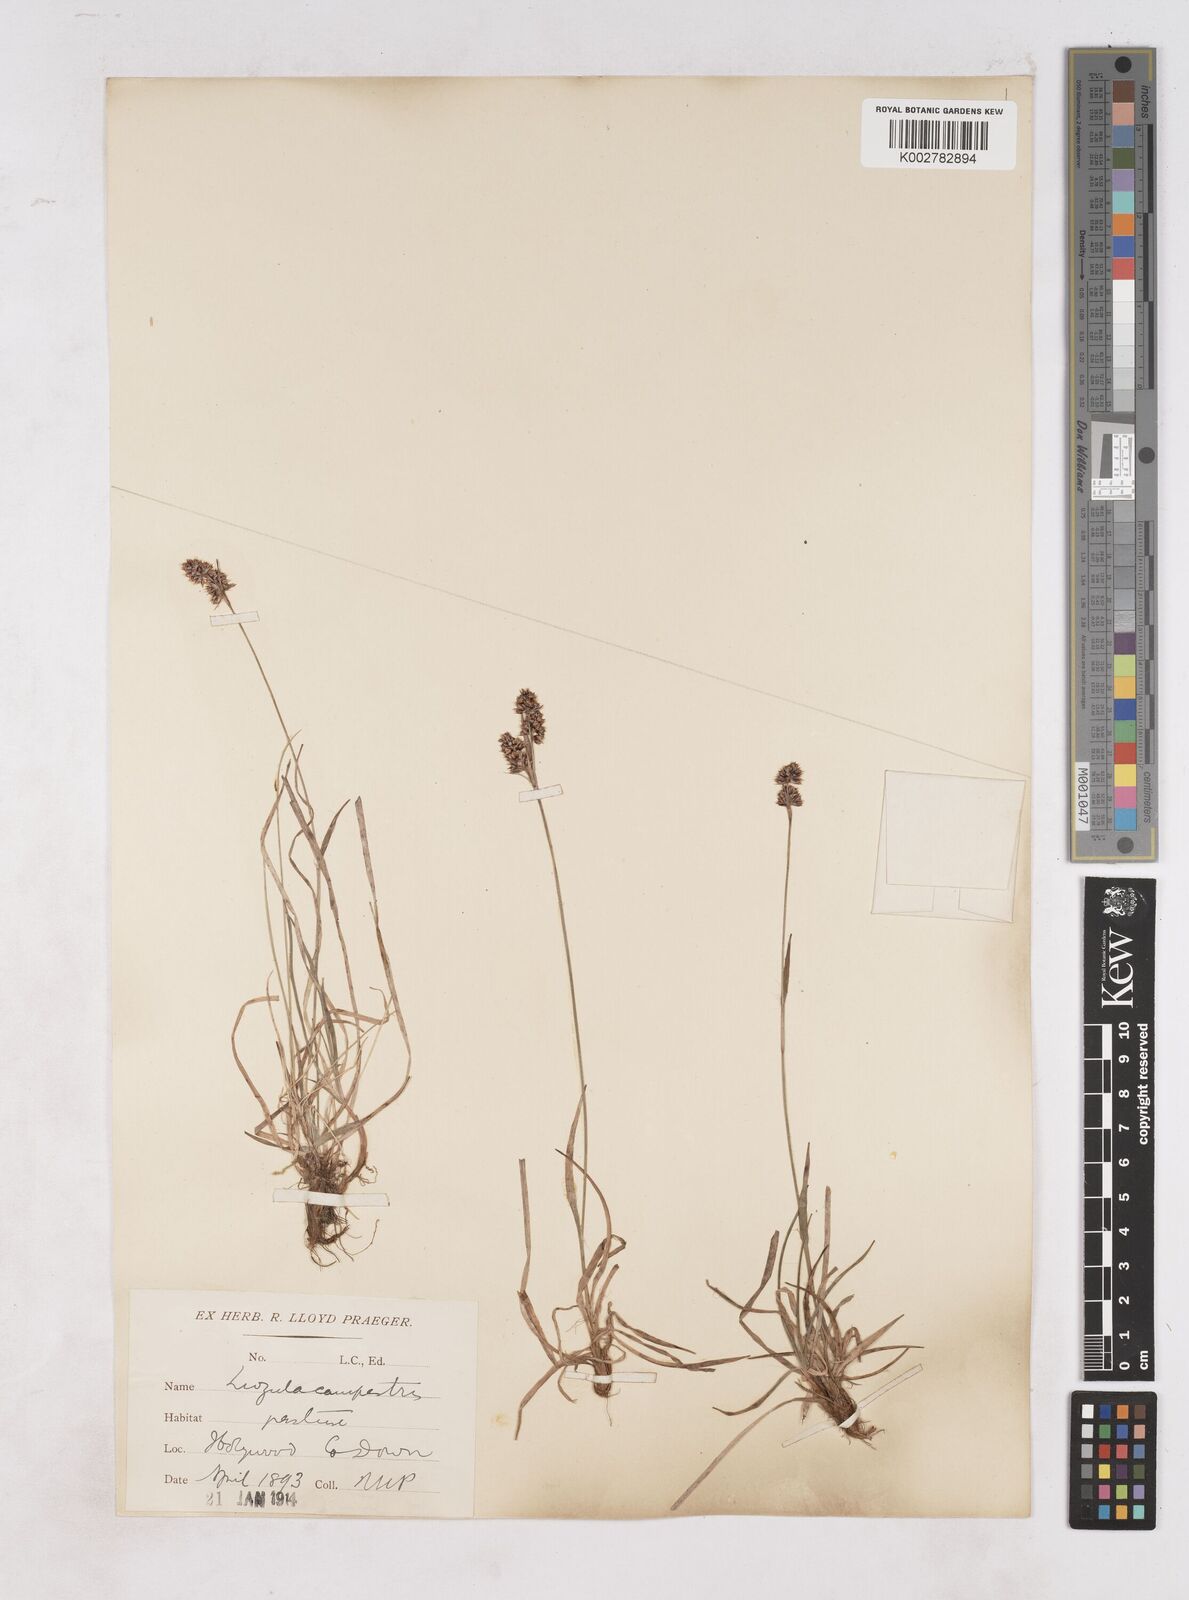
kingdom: Plantae
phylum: Tracheophyta
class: Liliopsida
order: Poales
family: Juncaceae
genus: Luzula
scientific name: Luzula campestris
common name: Field wood-rush
